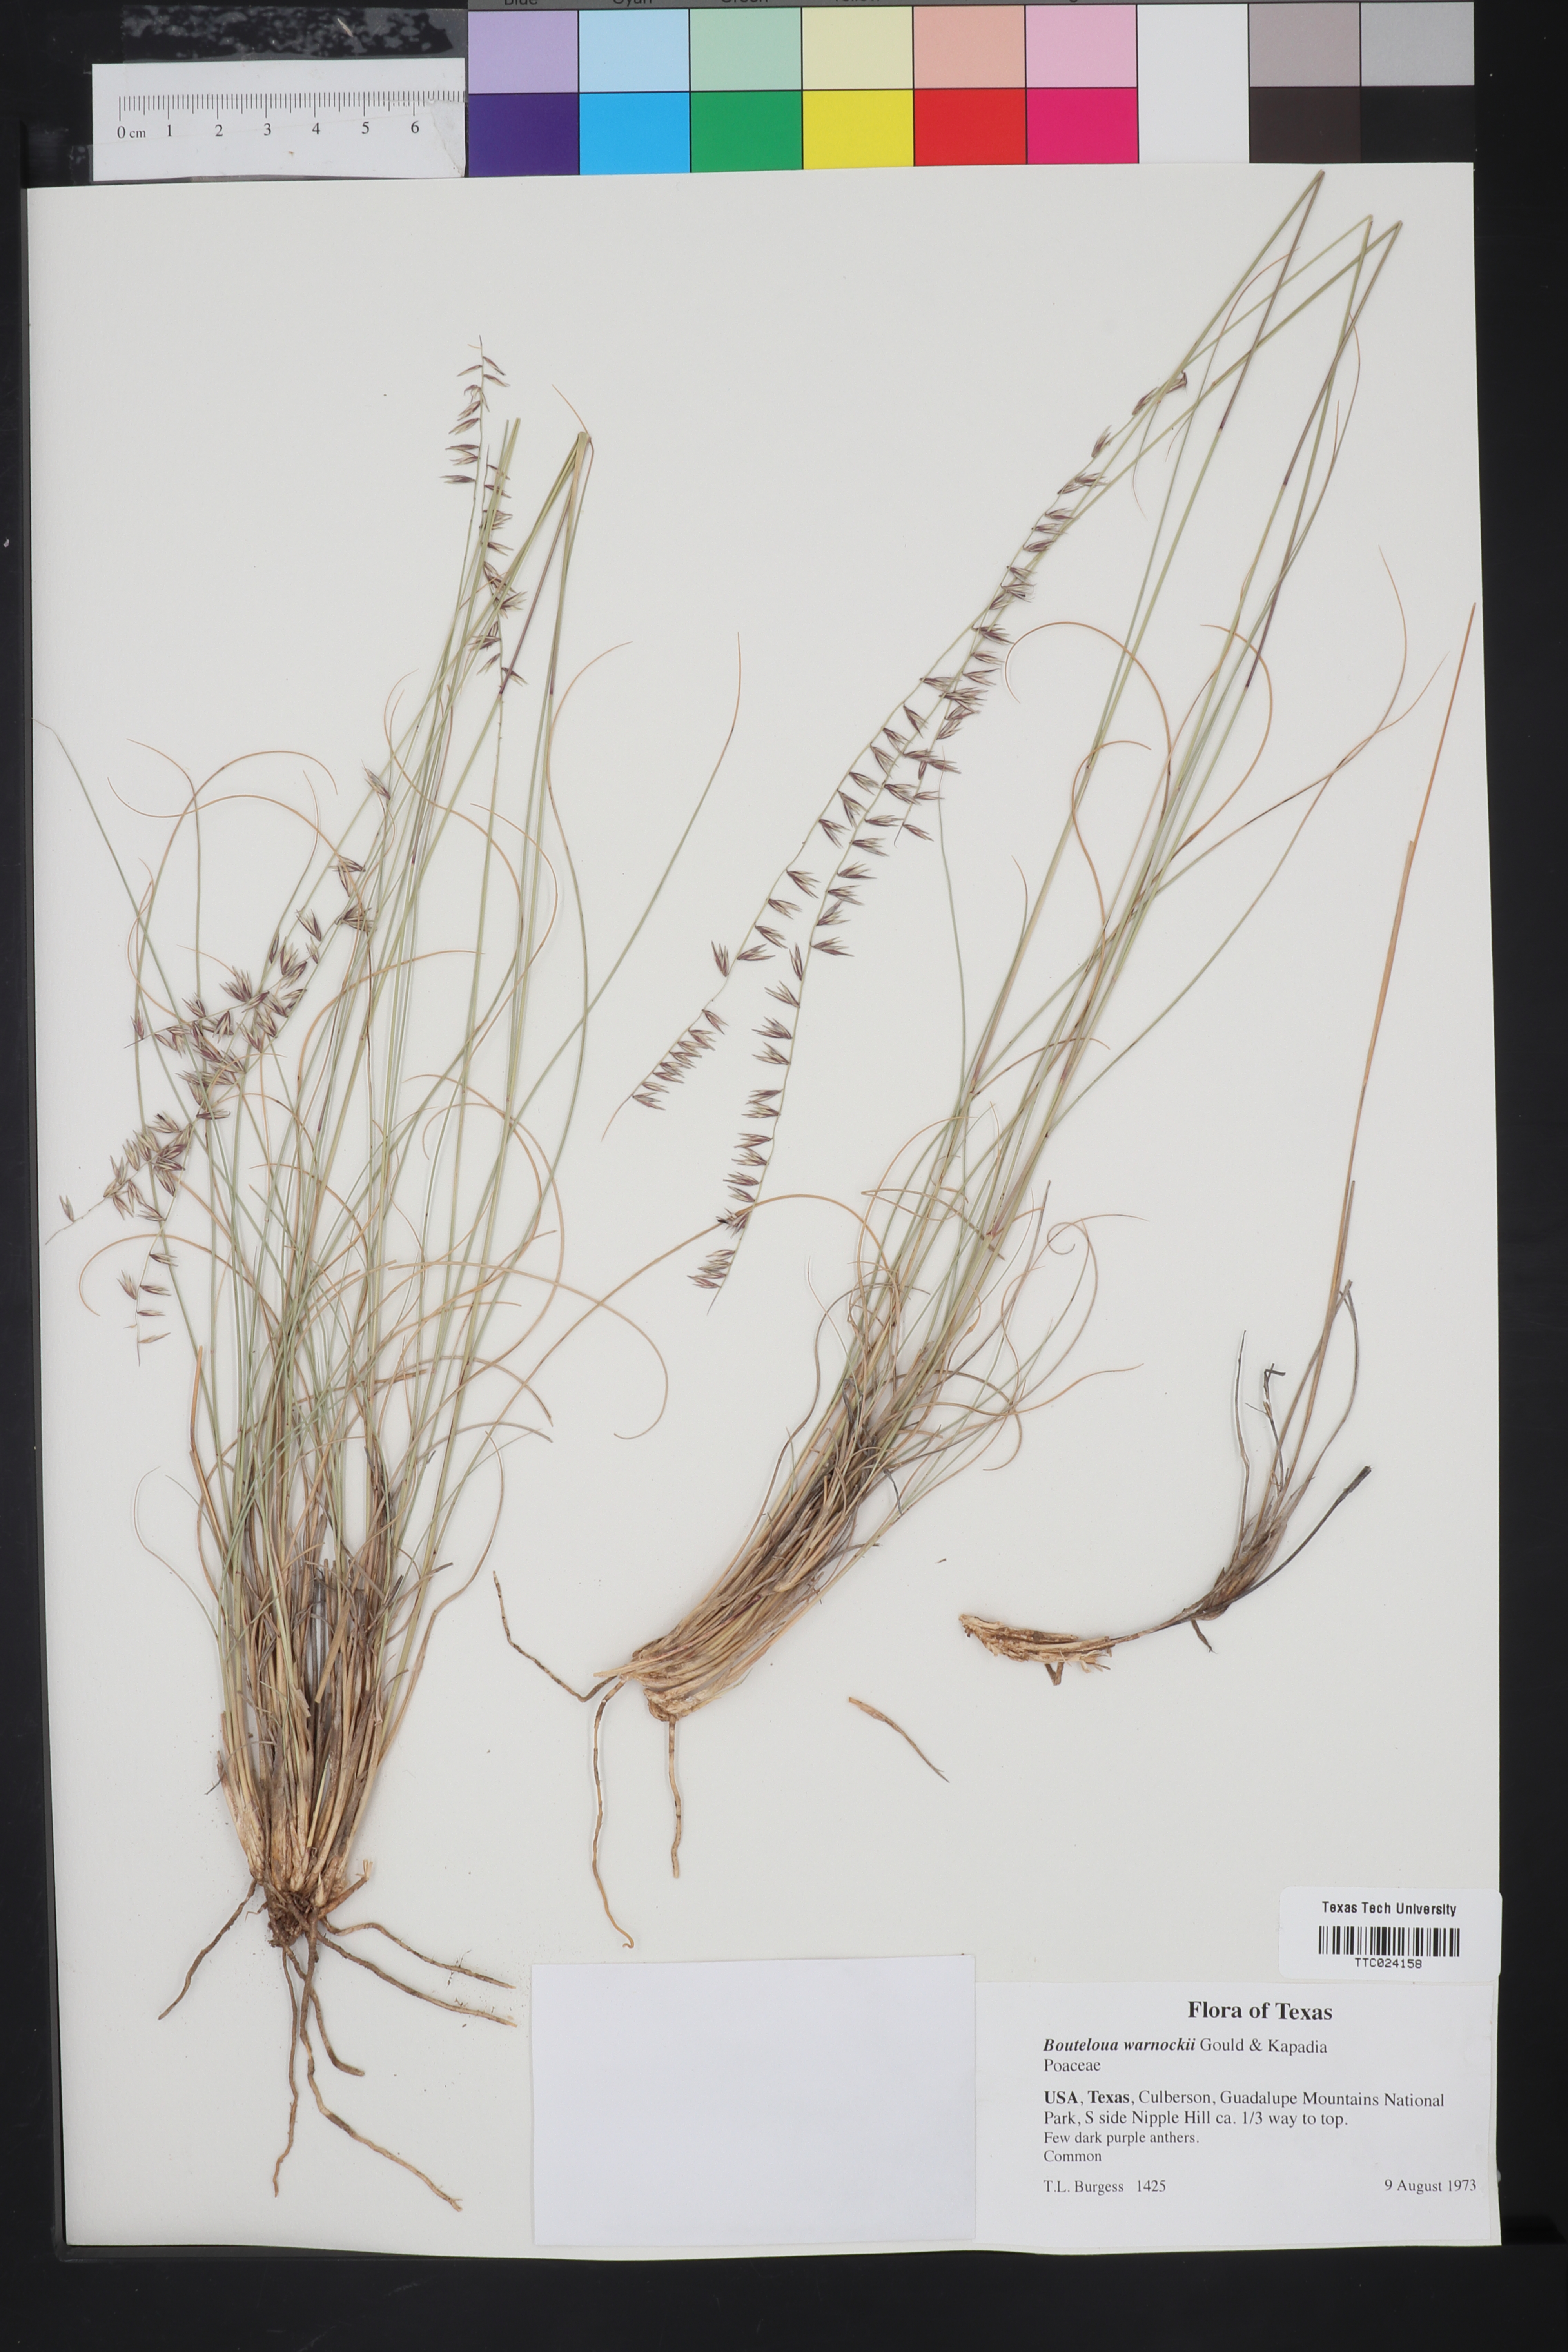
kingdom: Plantae
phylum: Tracheophyta
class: Liliopsida
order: Poales
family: Poaceae
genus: Bouteloua
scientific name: Bouteloua warnockii
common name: Warnock's grama
